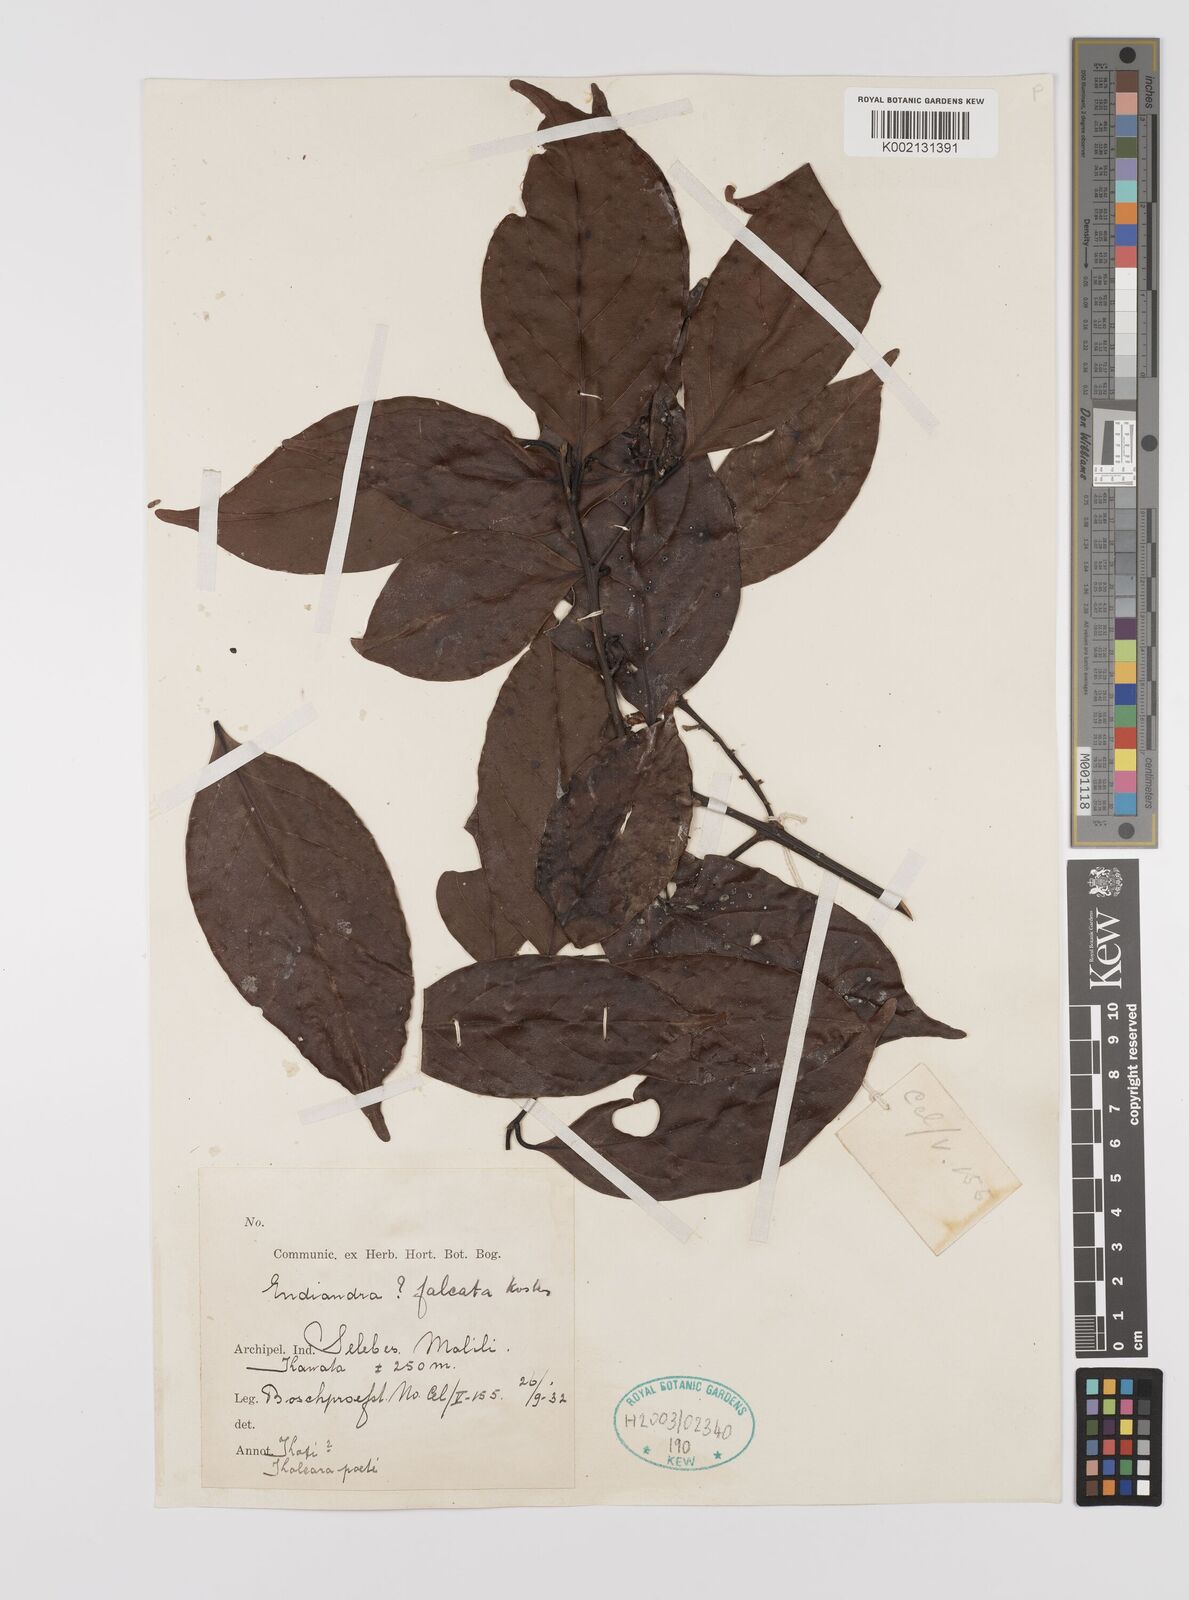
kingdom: Plantae
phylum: Tracheophyta
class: Magnoliopsida
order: Laurales
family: Lauraceae
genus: Endiandra
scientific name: Endiandra
